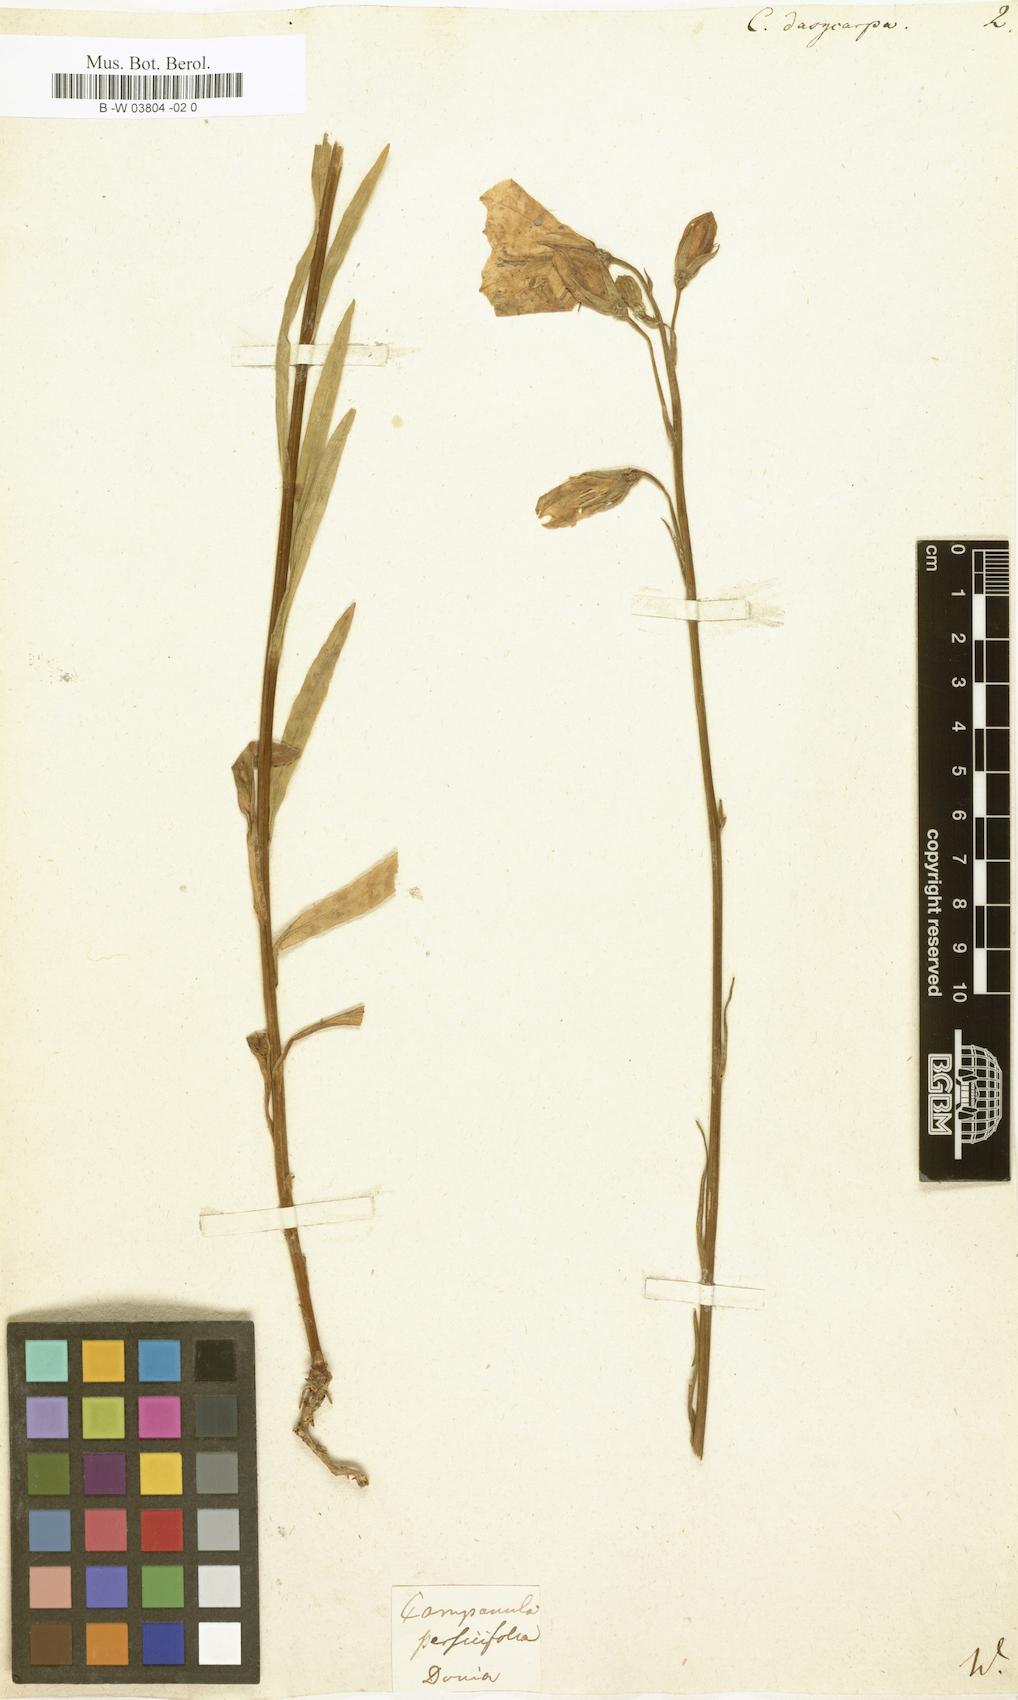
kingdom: Plantae
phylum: Tracheophyta
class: Magnoliopsida
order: Asterales
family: Campanulaceae
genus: Campanula
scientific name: Campanula persicifolia
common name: Peach-leaved bellflower
